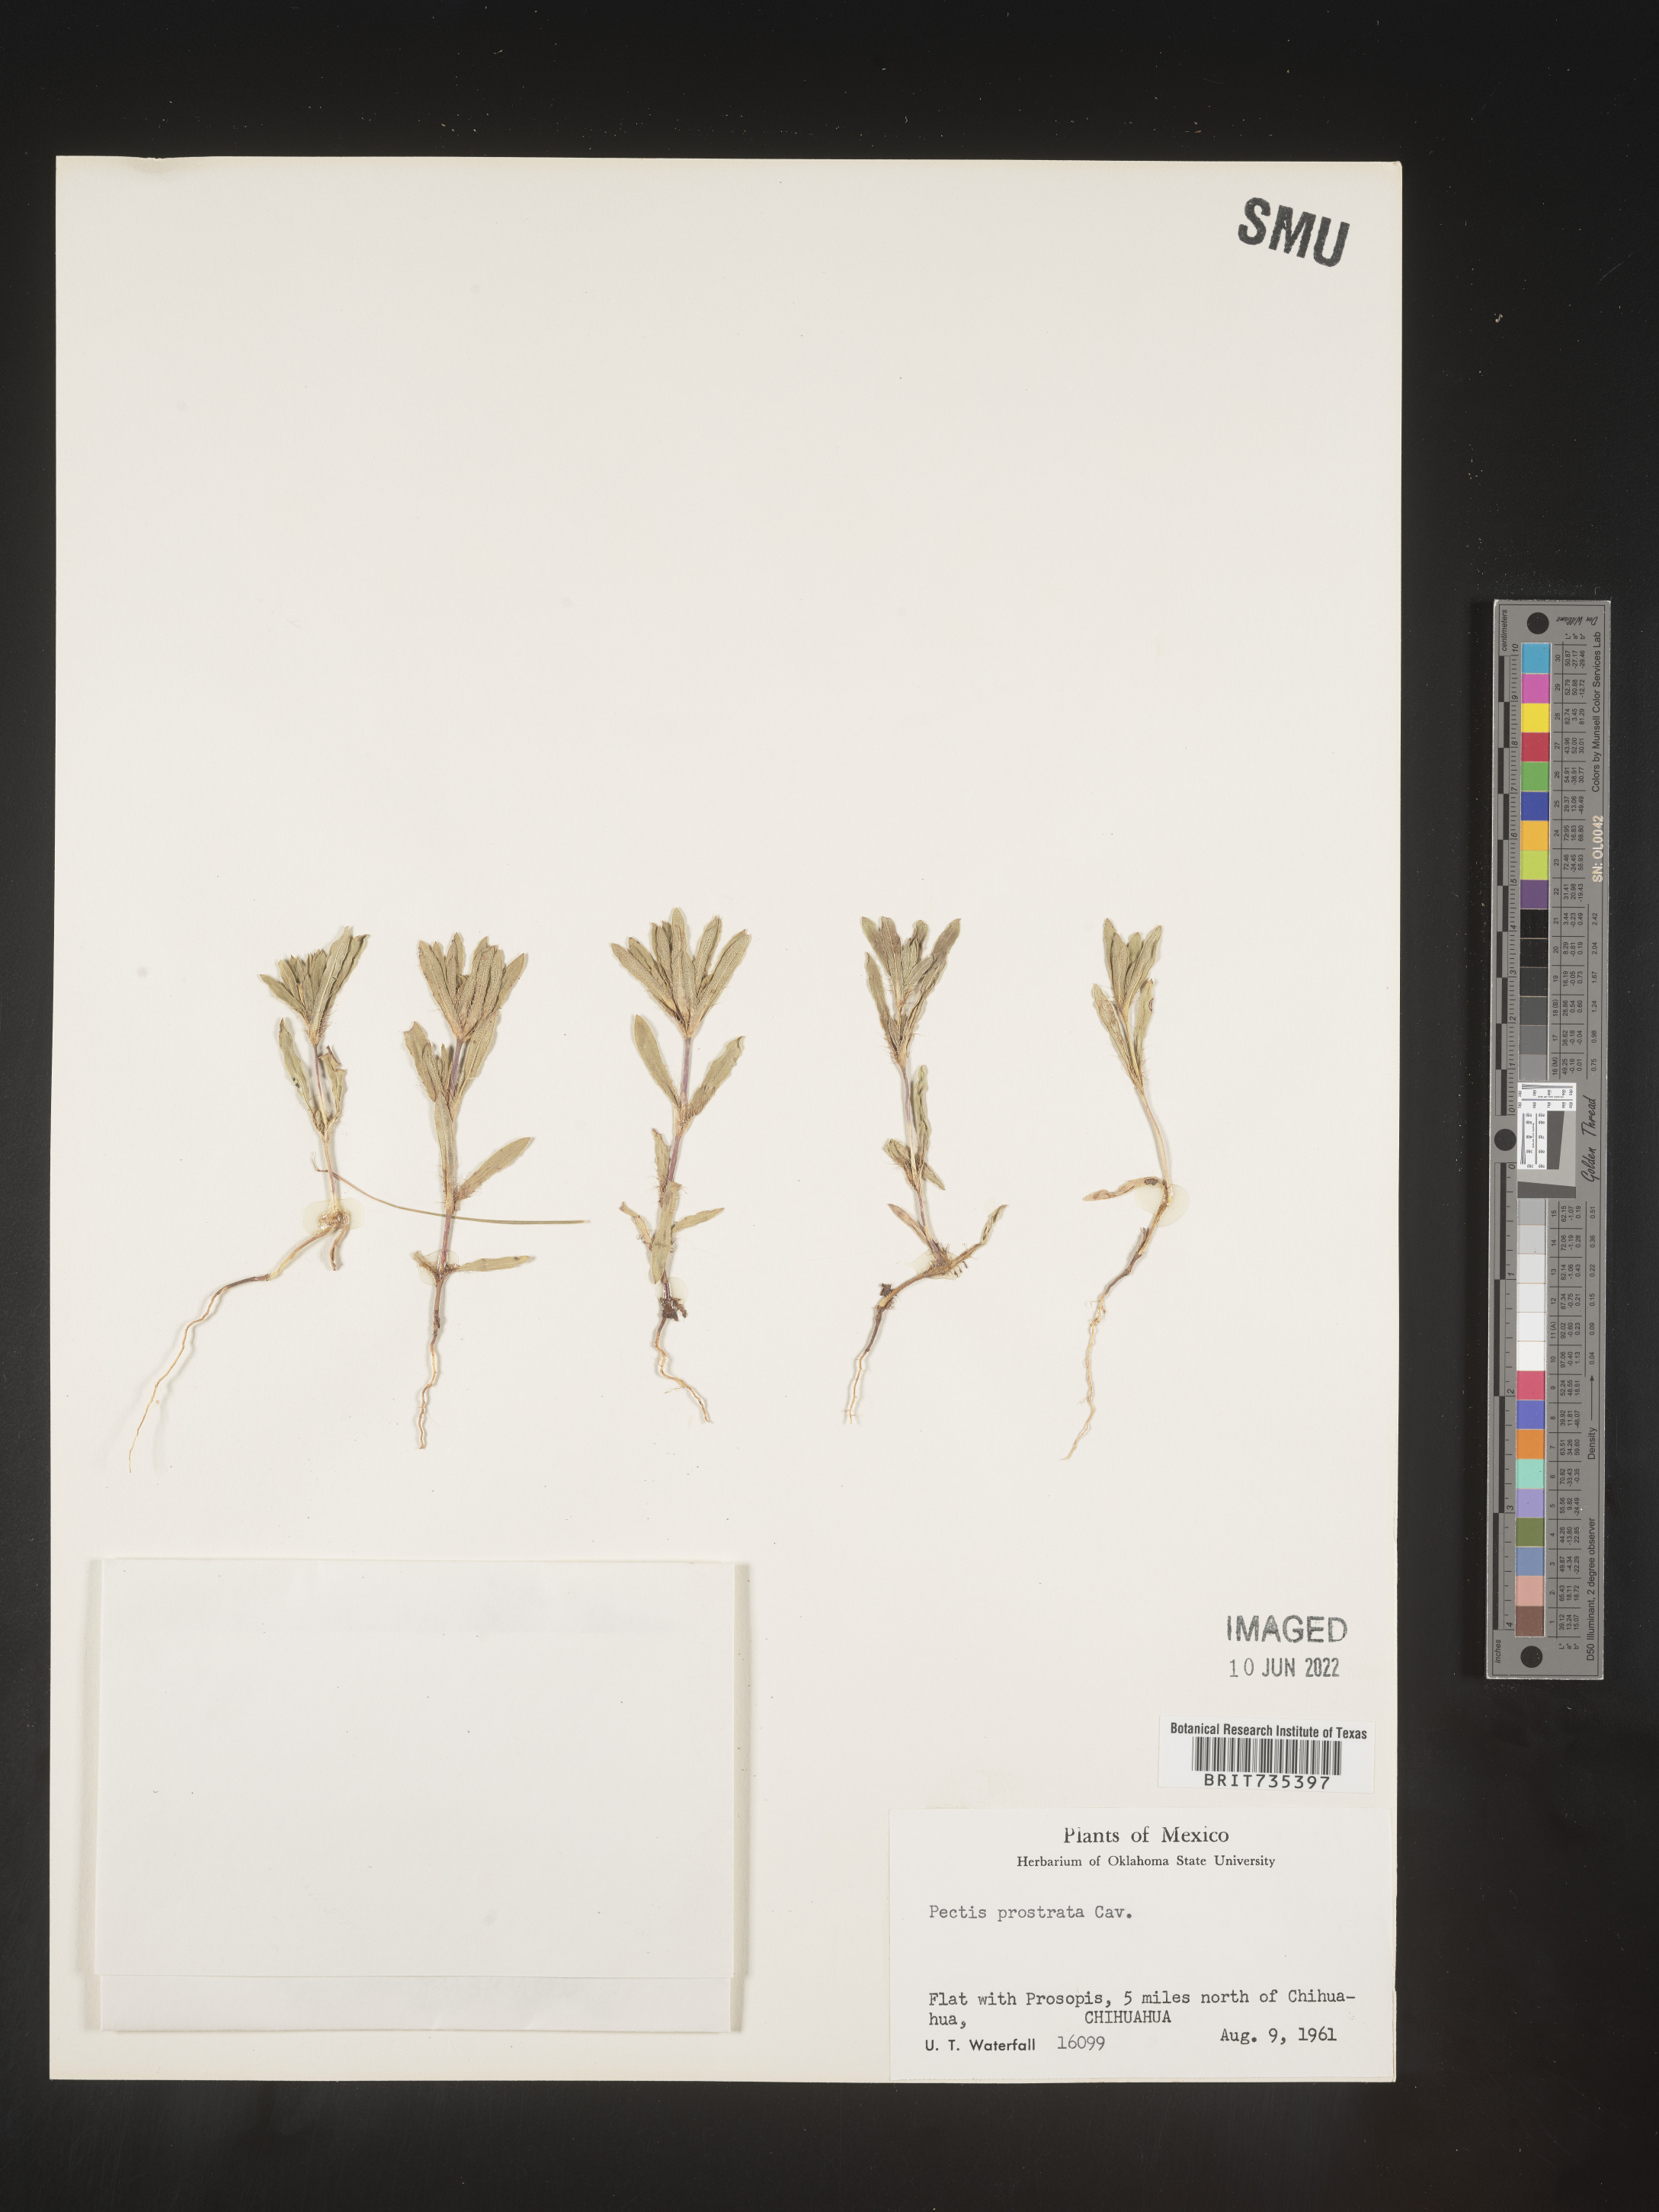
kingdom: Plantae
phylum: Tracheophyta
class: Magnoliopsida
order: Asterales
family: Asteraceae
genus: Pectis
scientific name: Pectis
